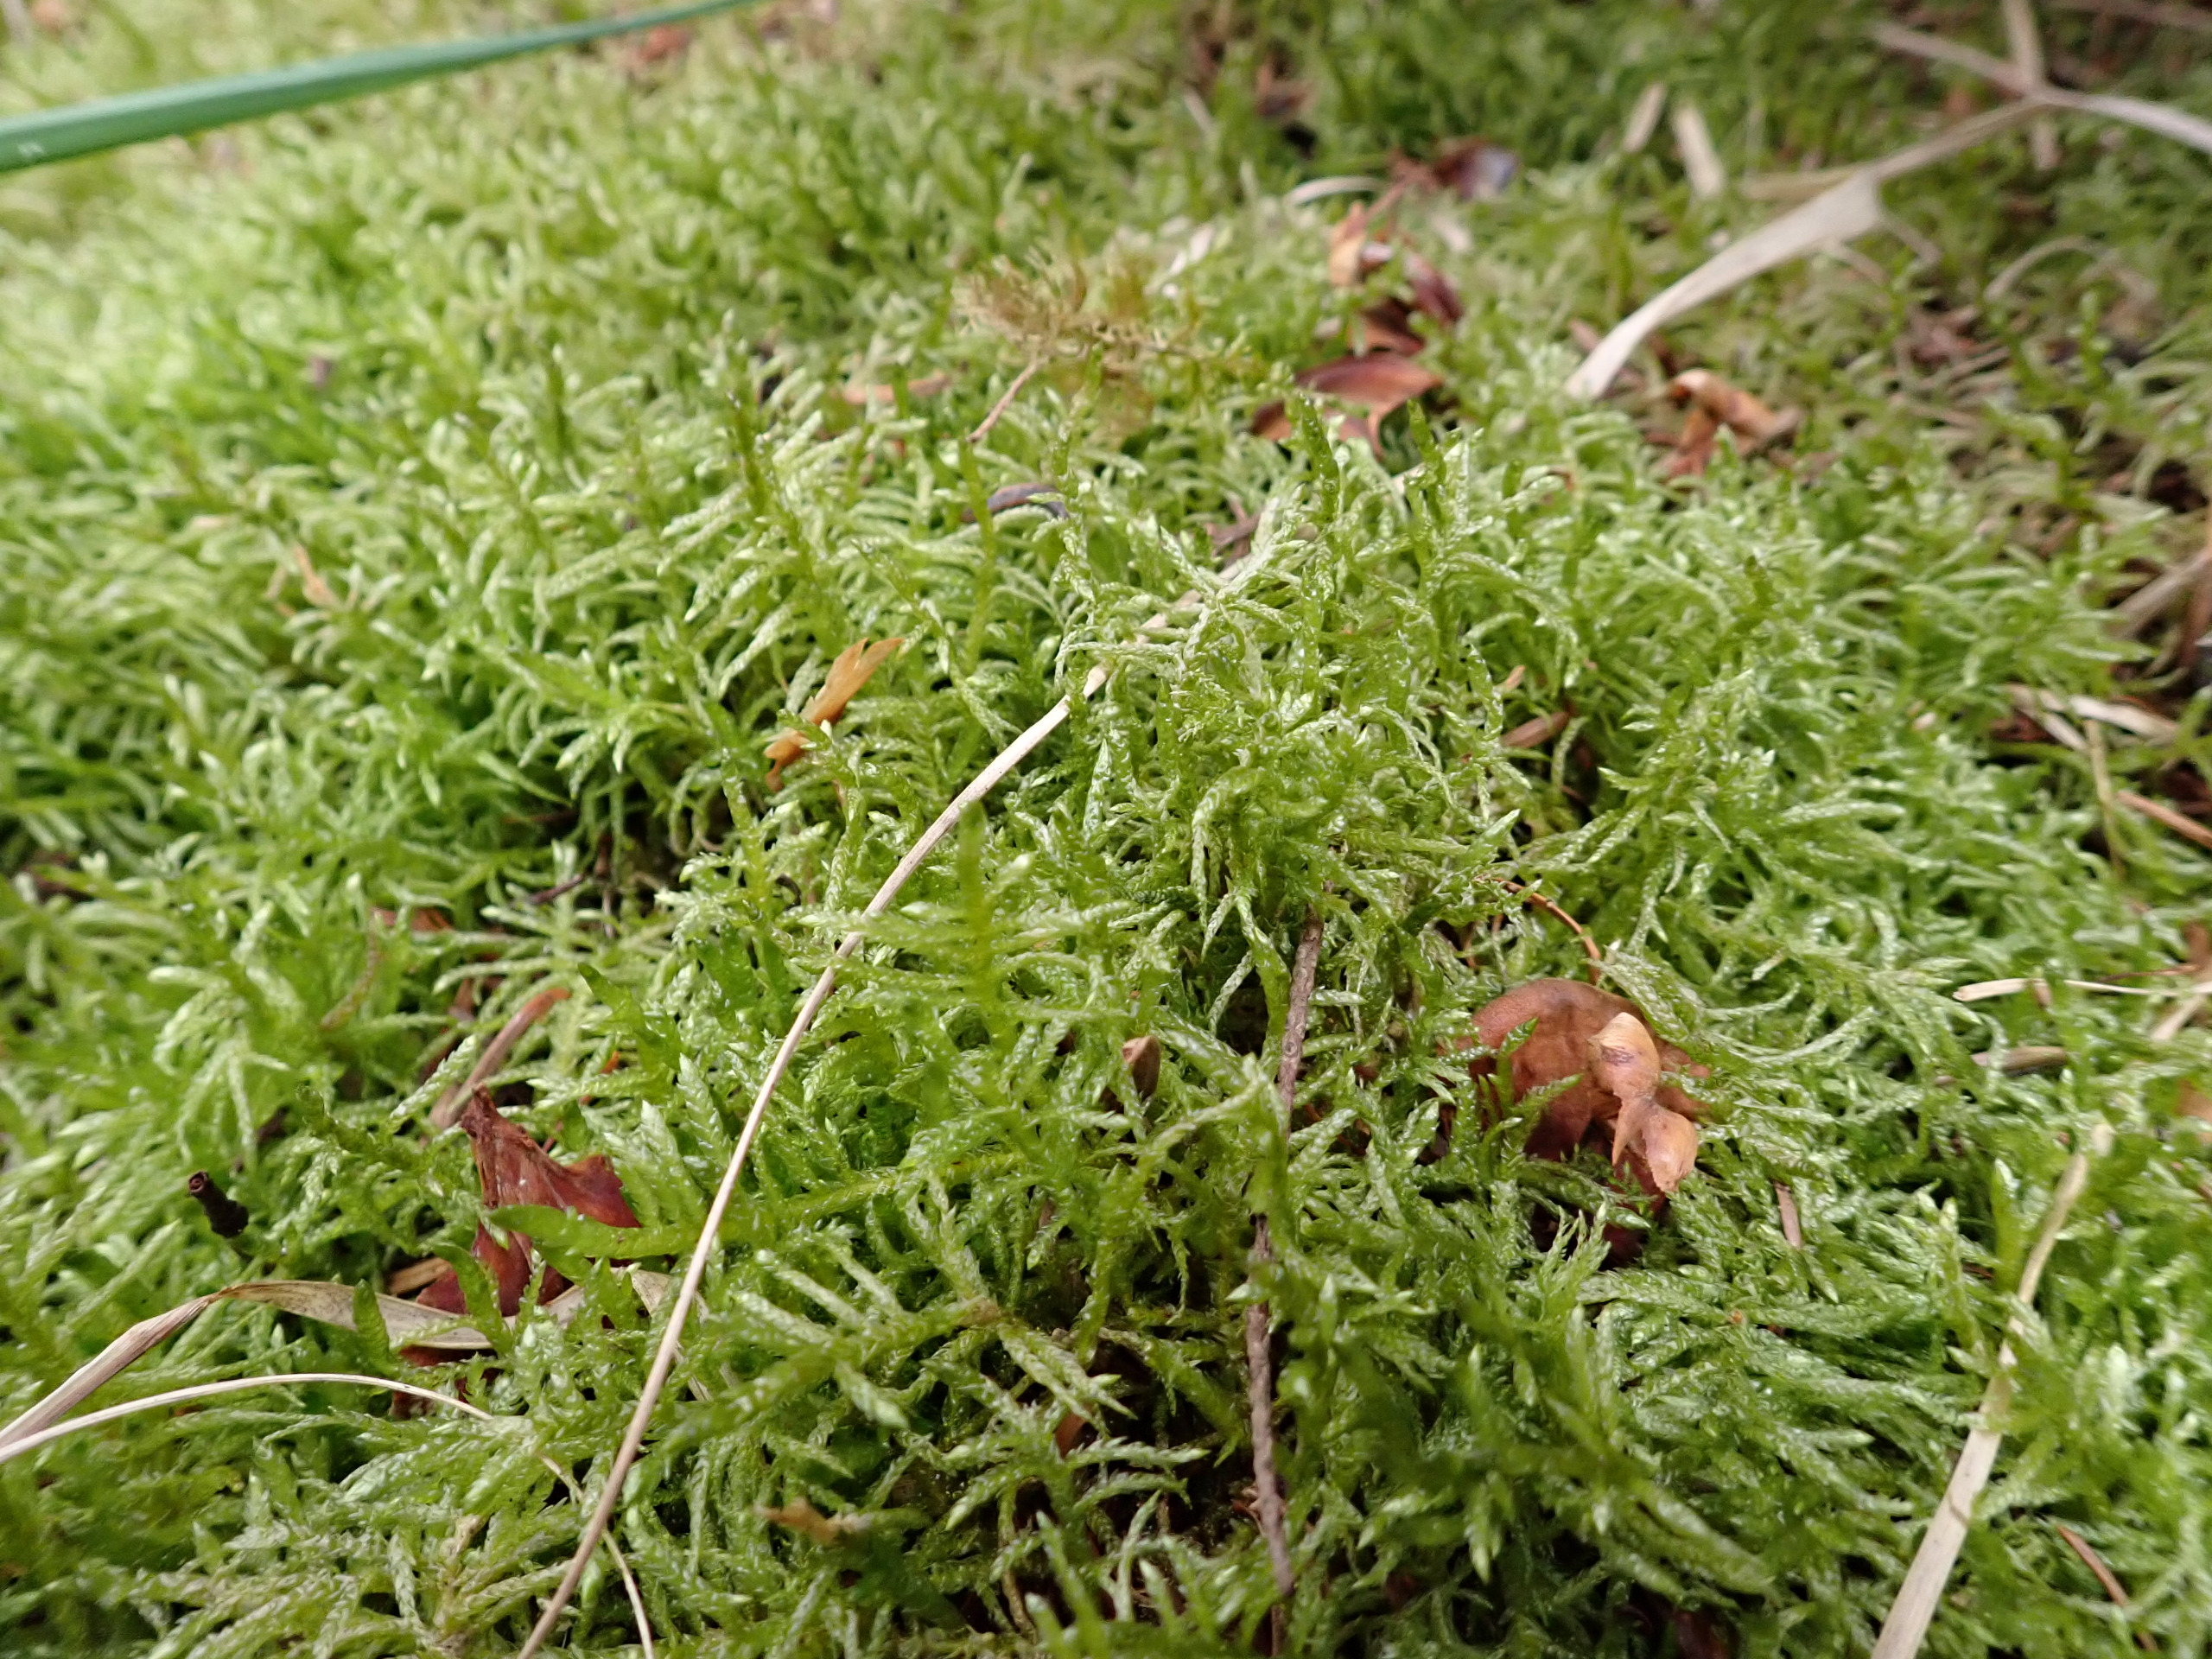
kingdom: Plantae
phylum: Bryophyta
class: Bryopsida
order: Hypnales
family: Brachytheciaceae
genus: Pseudoscleropodium
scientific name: Pseudoscleropodium purum
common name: Hulbladet fedtmos
